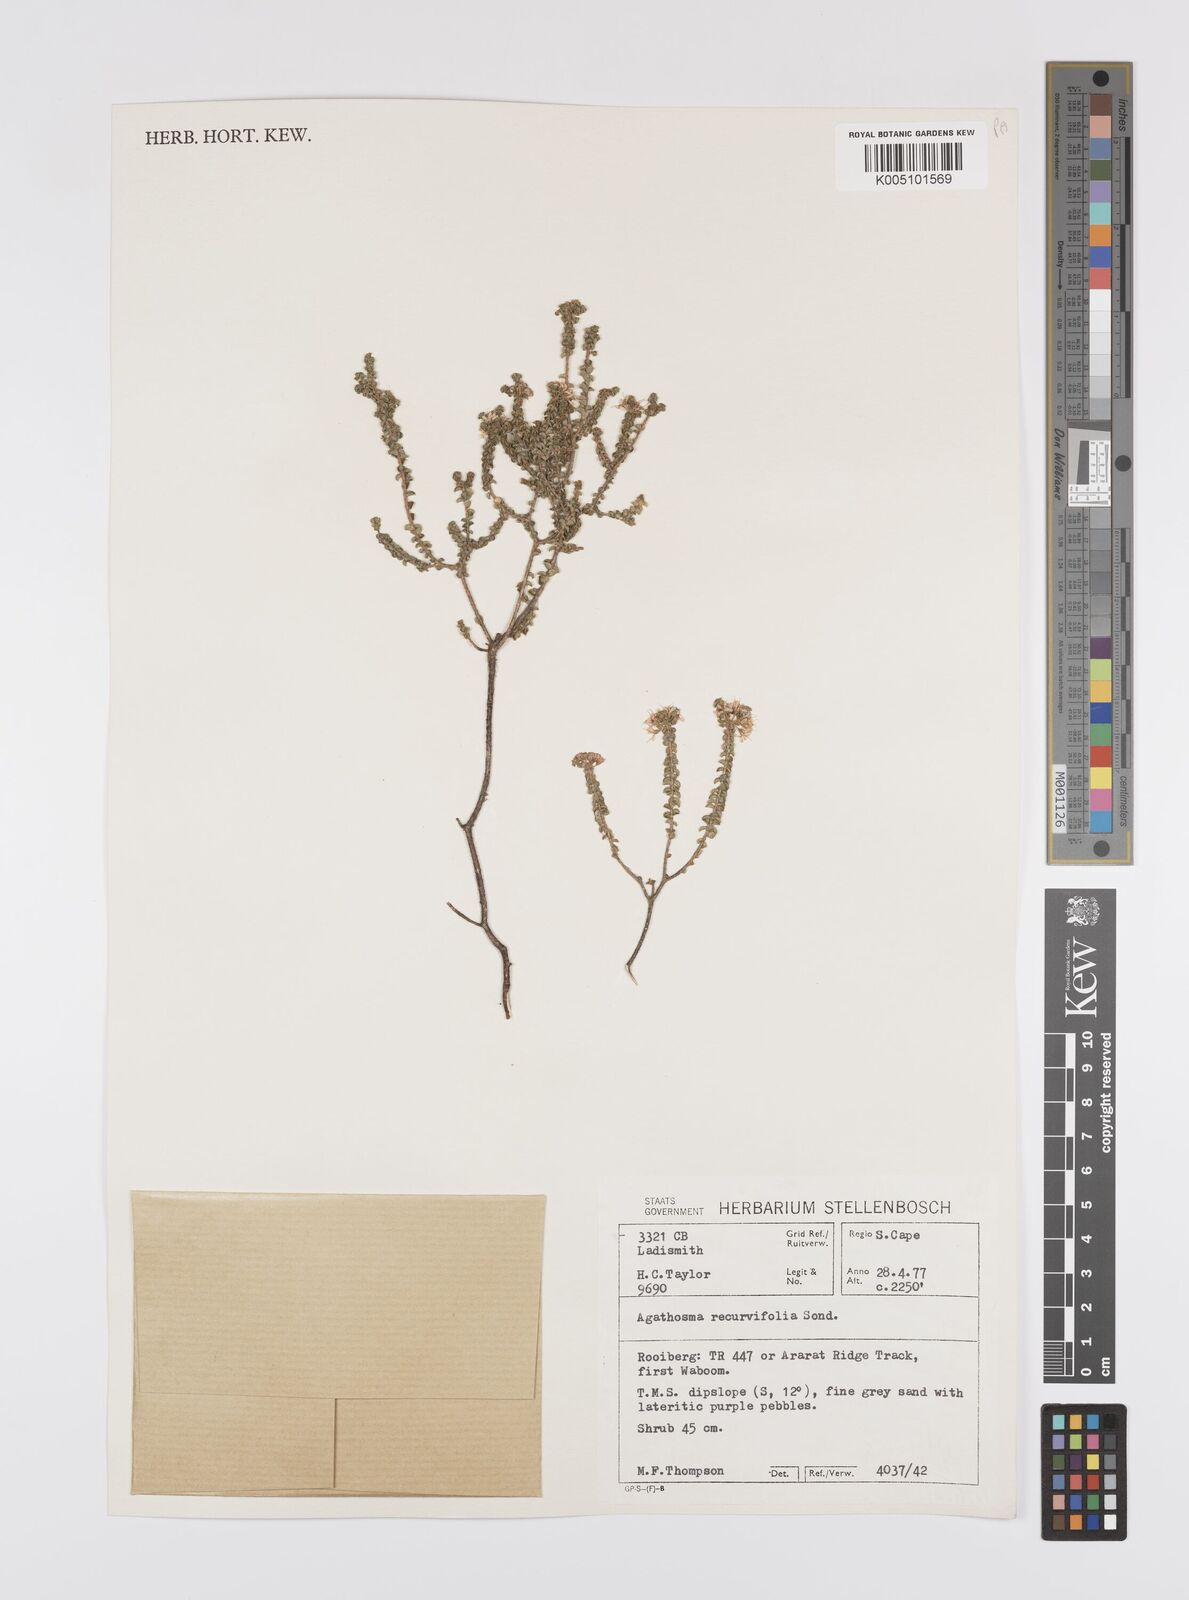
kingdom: Plantae
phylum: Tracheophyta
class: Magnoliopsida
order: Sapindales
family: Rutaceae
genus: Agathosma
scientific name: Agathosma recurvifolia
